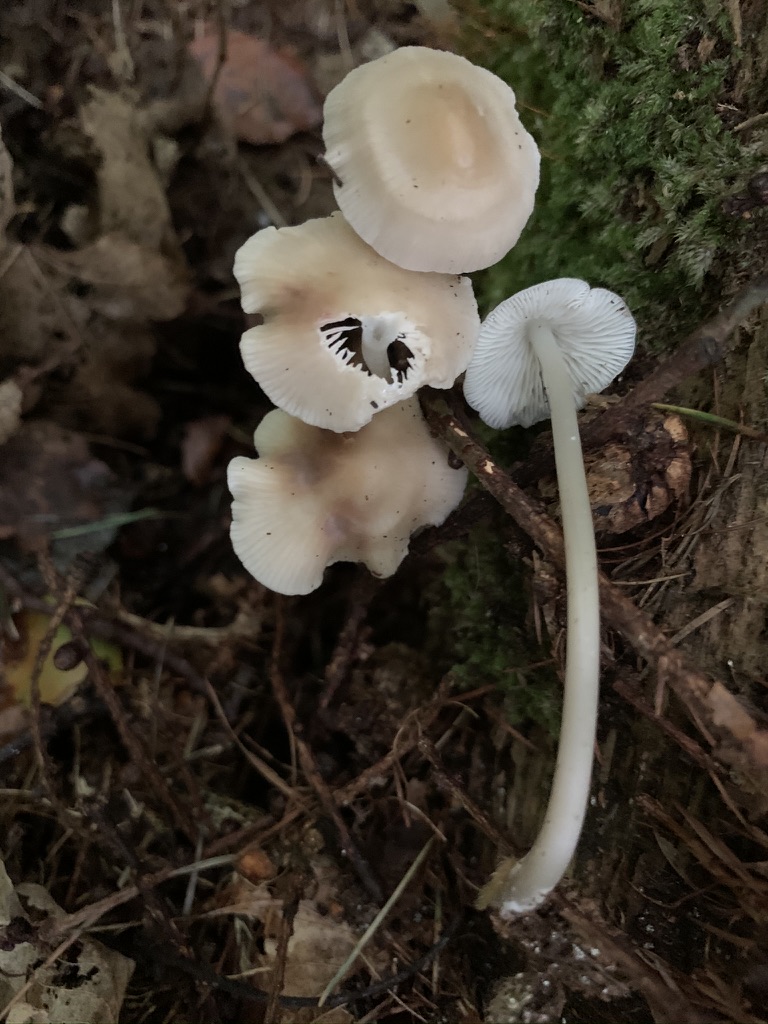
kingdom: Fungi
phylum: Basidiomycota
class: Agaricomycetes
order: Agaricales
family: Mycenaceae
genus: Mycena
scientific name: Mycena galericulata
